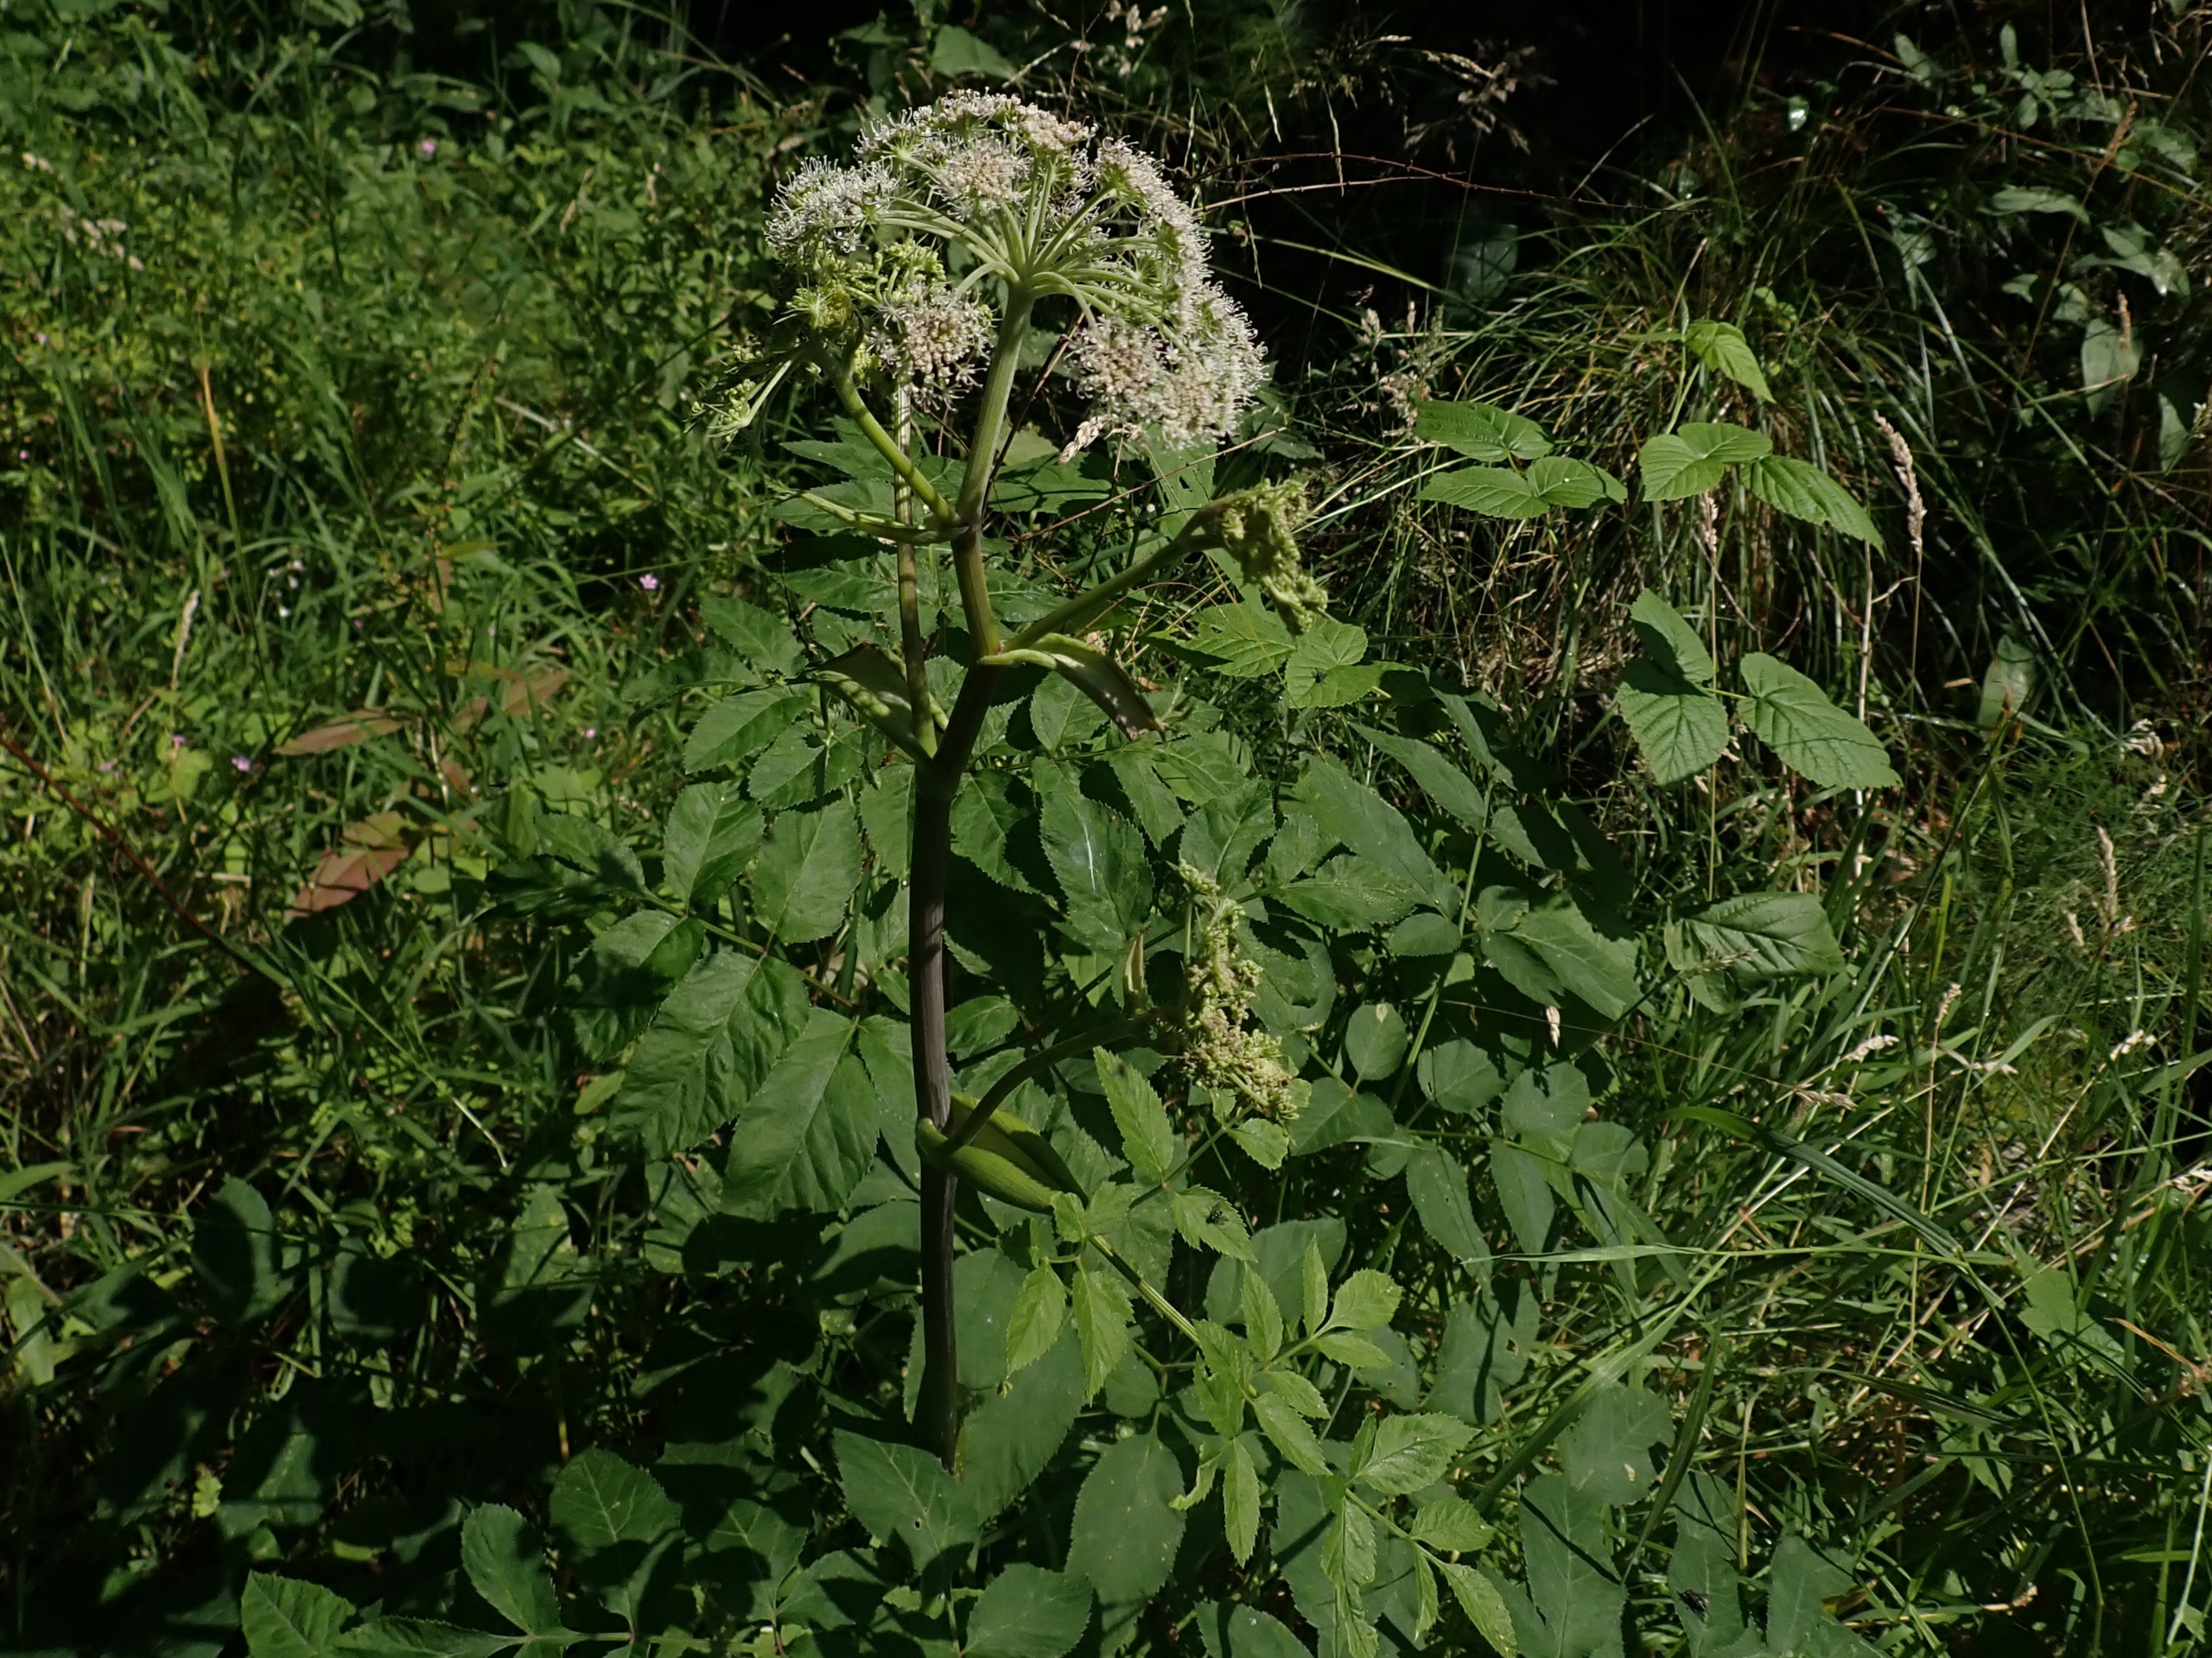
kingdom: Plantae
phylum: Tracheophyta
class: Magnoliopsida
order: Apiales
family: Apiaceae
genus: Angelica
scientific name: Angelica sylvestris
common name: Angelik
